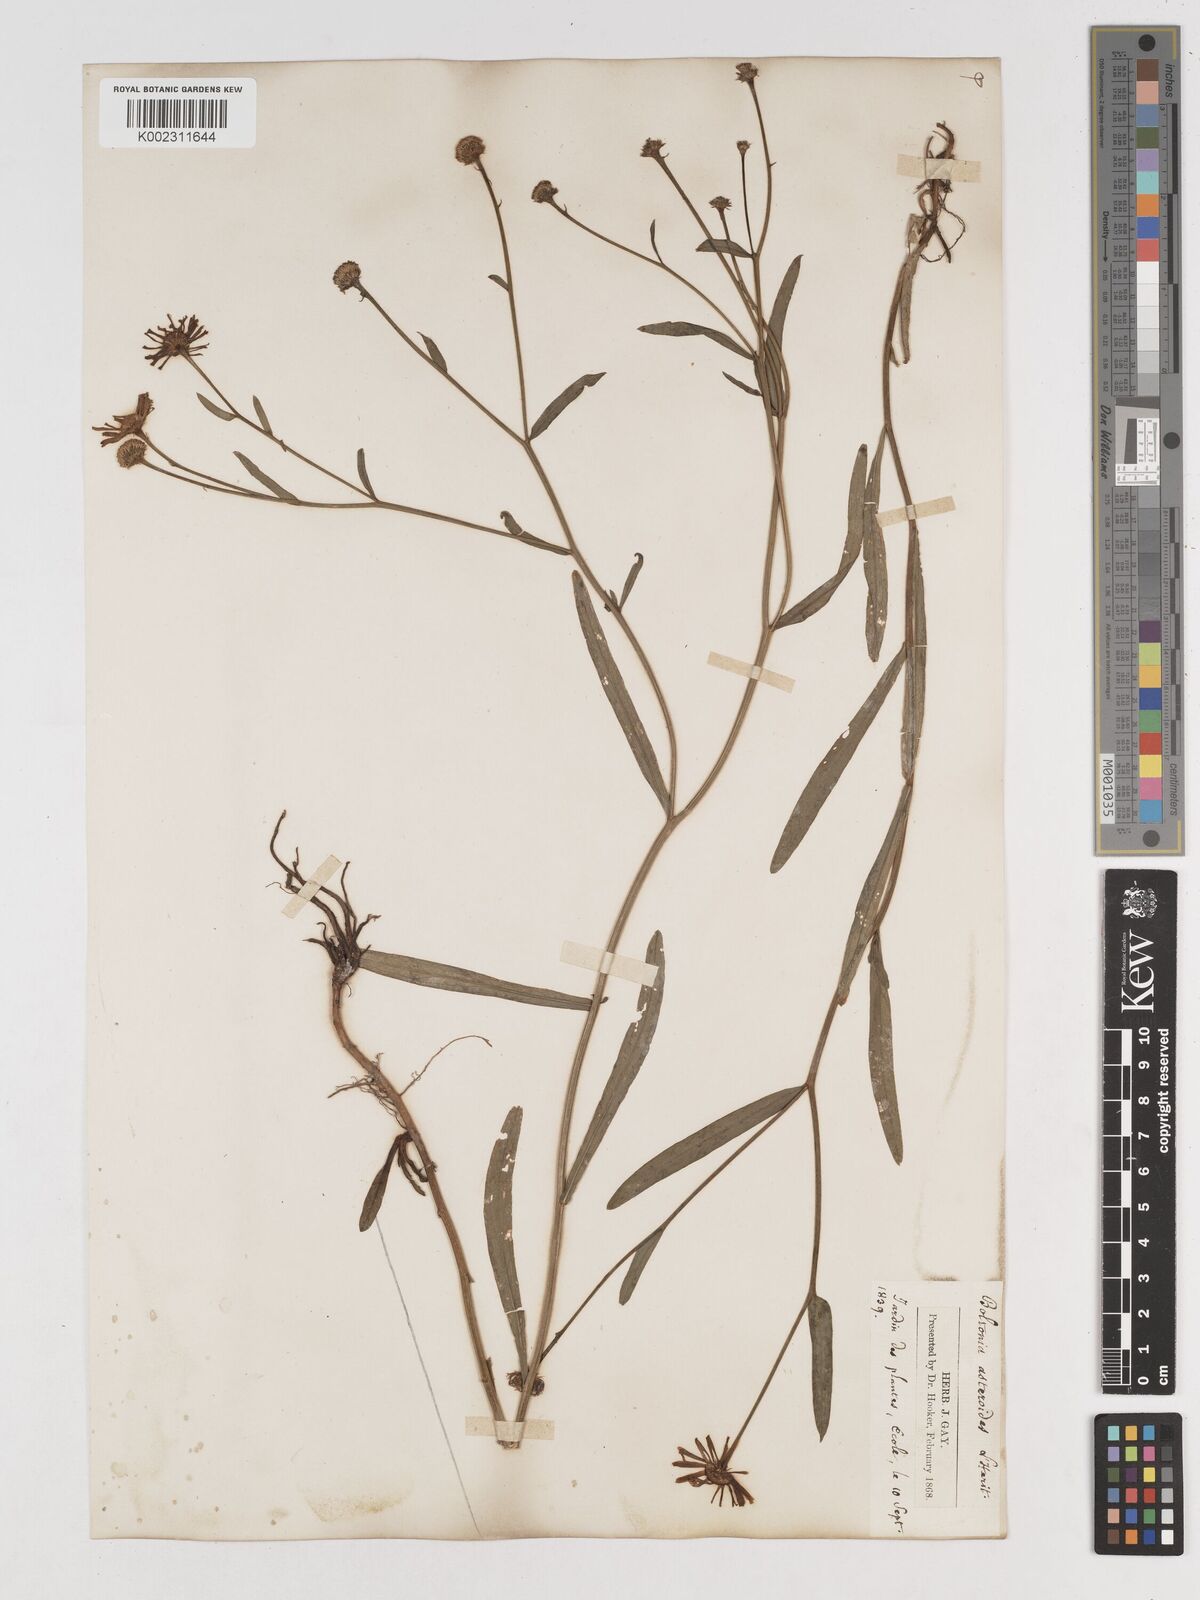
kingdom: Plantae
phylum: Tracheophyta
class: Magnoliopsida
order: Asterales
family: Asteraceae
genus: Boltonia
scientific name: Boltonia diffusa
